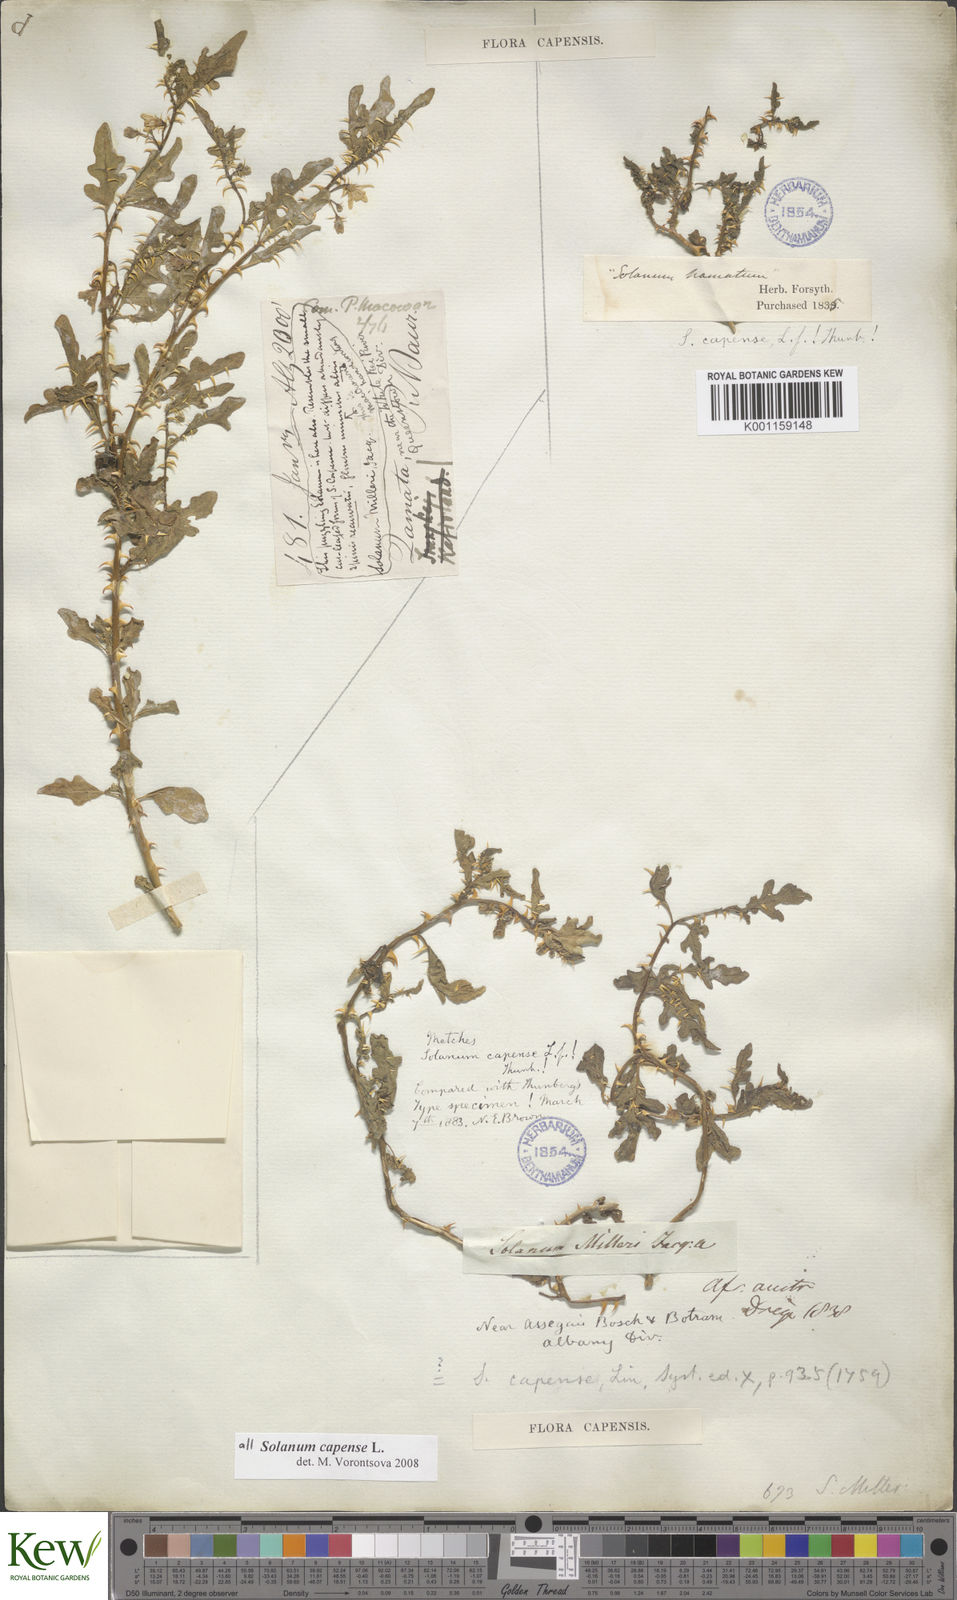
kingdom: Plantae
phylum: Tracheophyta
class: Magnoliopsida
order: Solanales
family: Solanaceae
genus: Solanum
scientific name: Solanum capense
